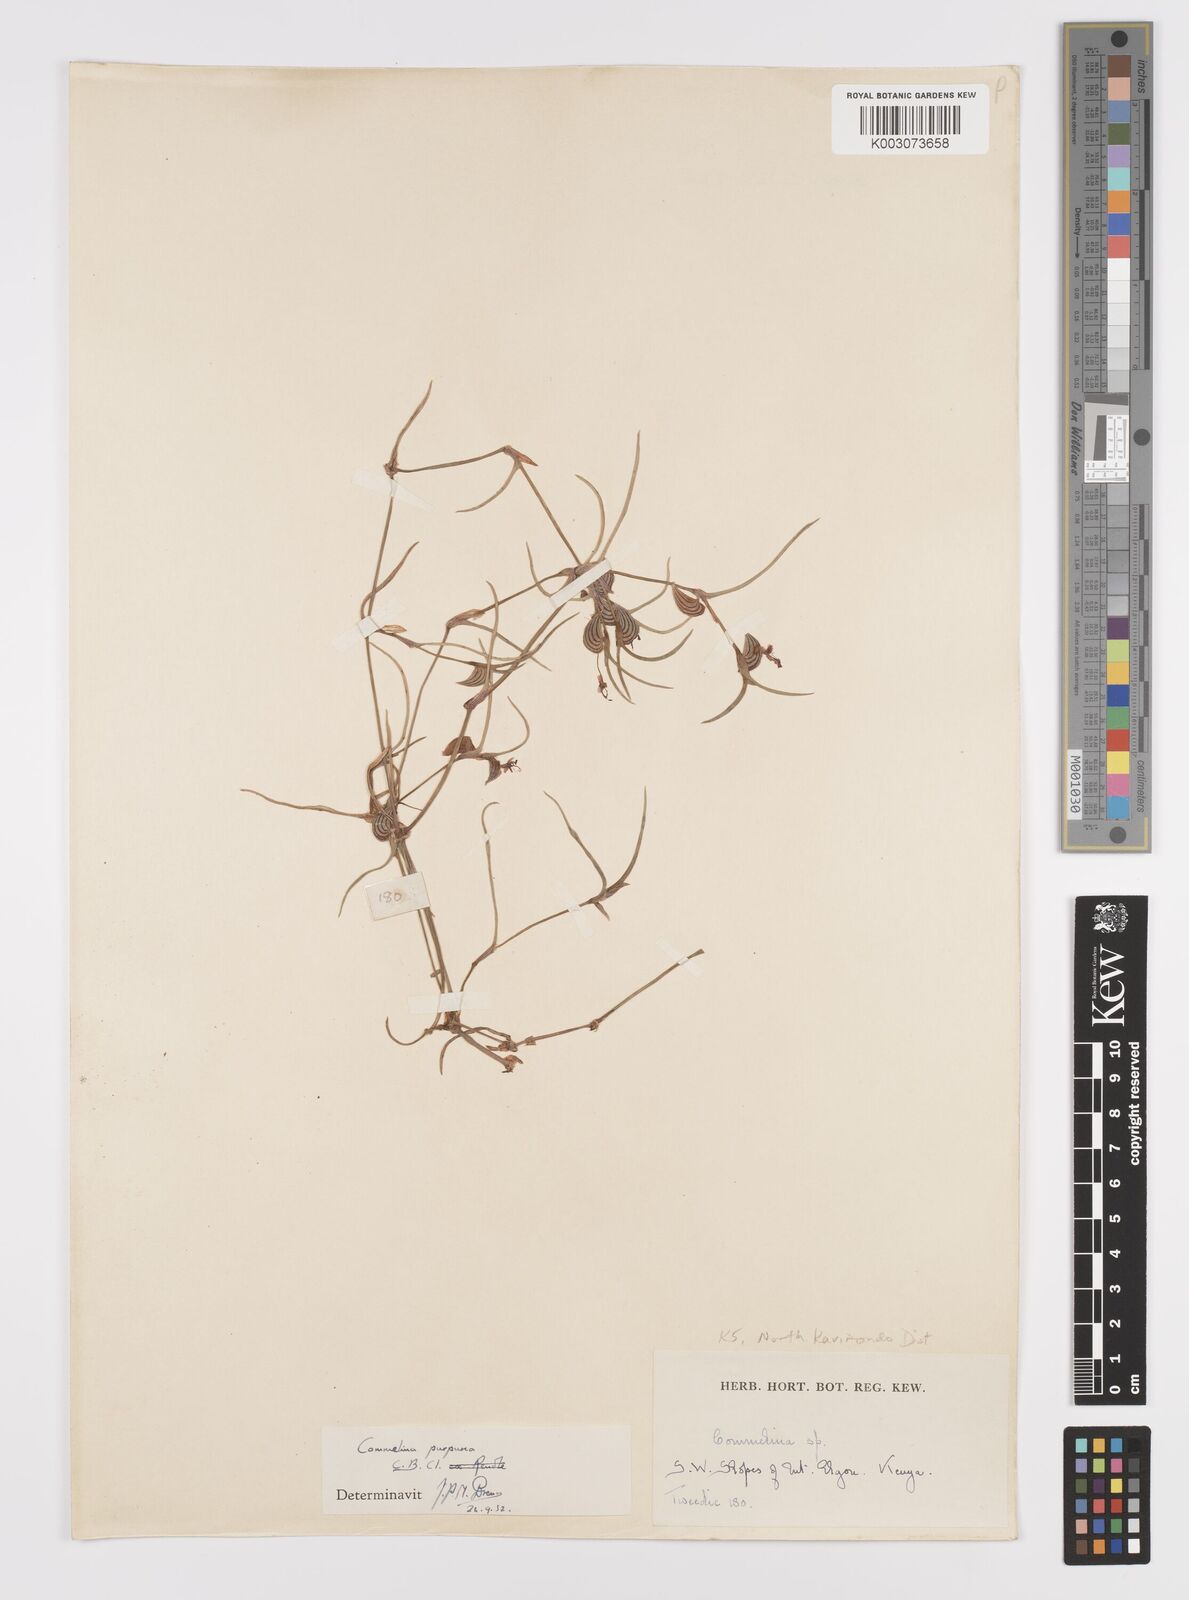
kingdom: Plantae
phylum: Tracheophyta
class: Liliopsida
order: Commelinales
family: Commelinaceae
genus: Commelina
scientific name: Commelina purpurea
